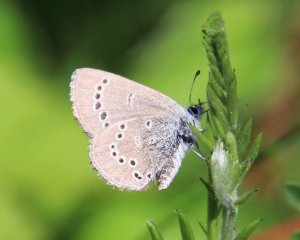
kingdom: Animalia
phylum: Arthropoda
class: Insecta
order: Lepidoptera
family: Lycaenidae
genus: Glaucopsyche
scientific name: Glaucopsyche lygdamus
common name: Silvery Blue
